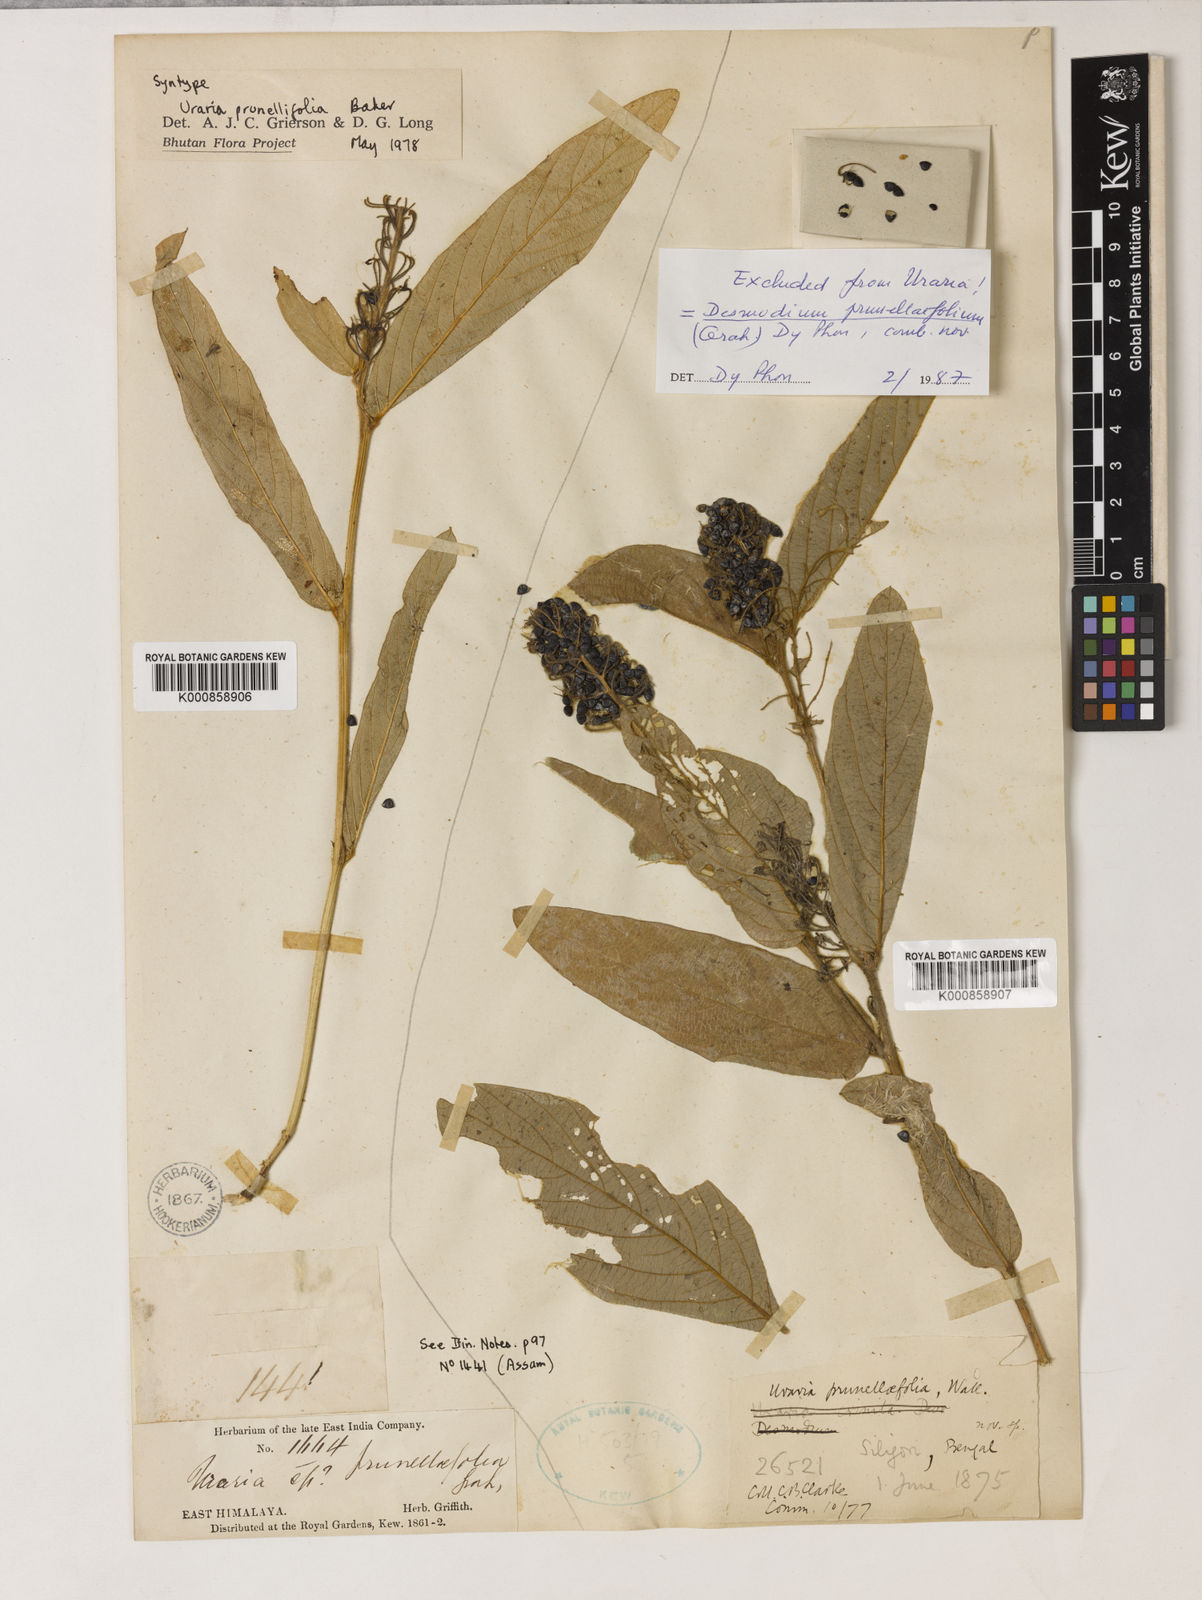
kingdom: Plantae
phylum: Tracheophyta
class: Magnoliopsida
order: Fabales
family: Fabaceae
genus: Uraria
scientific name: Uraria
